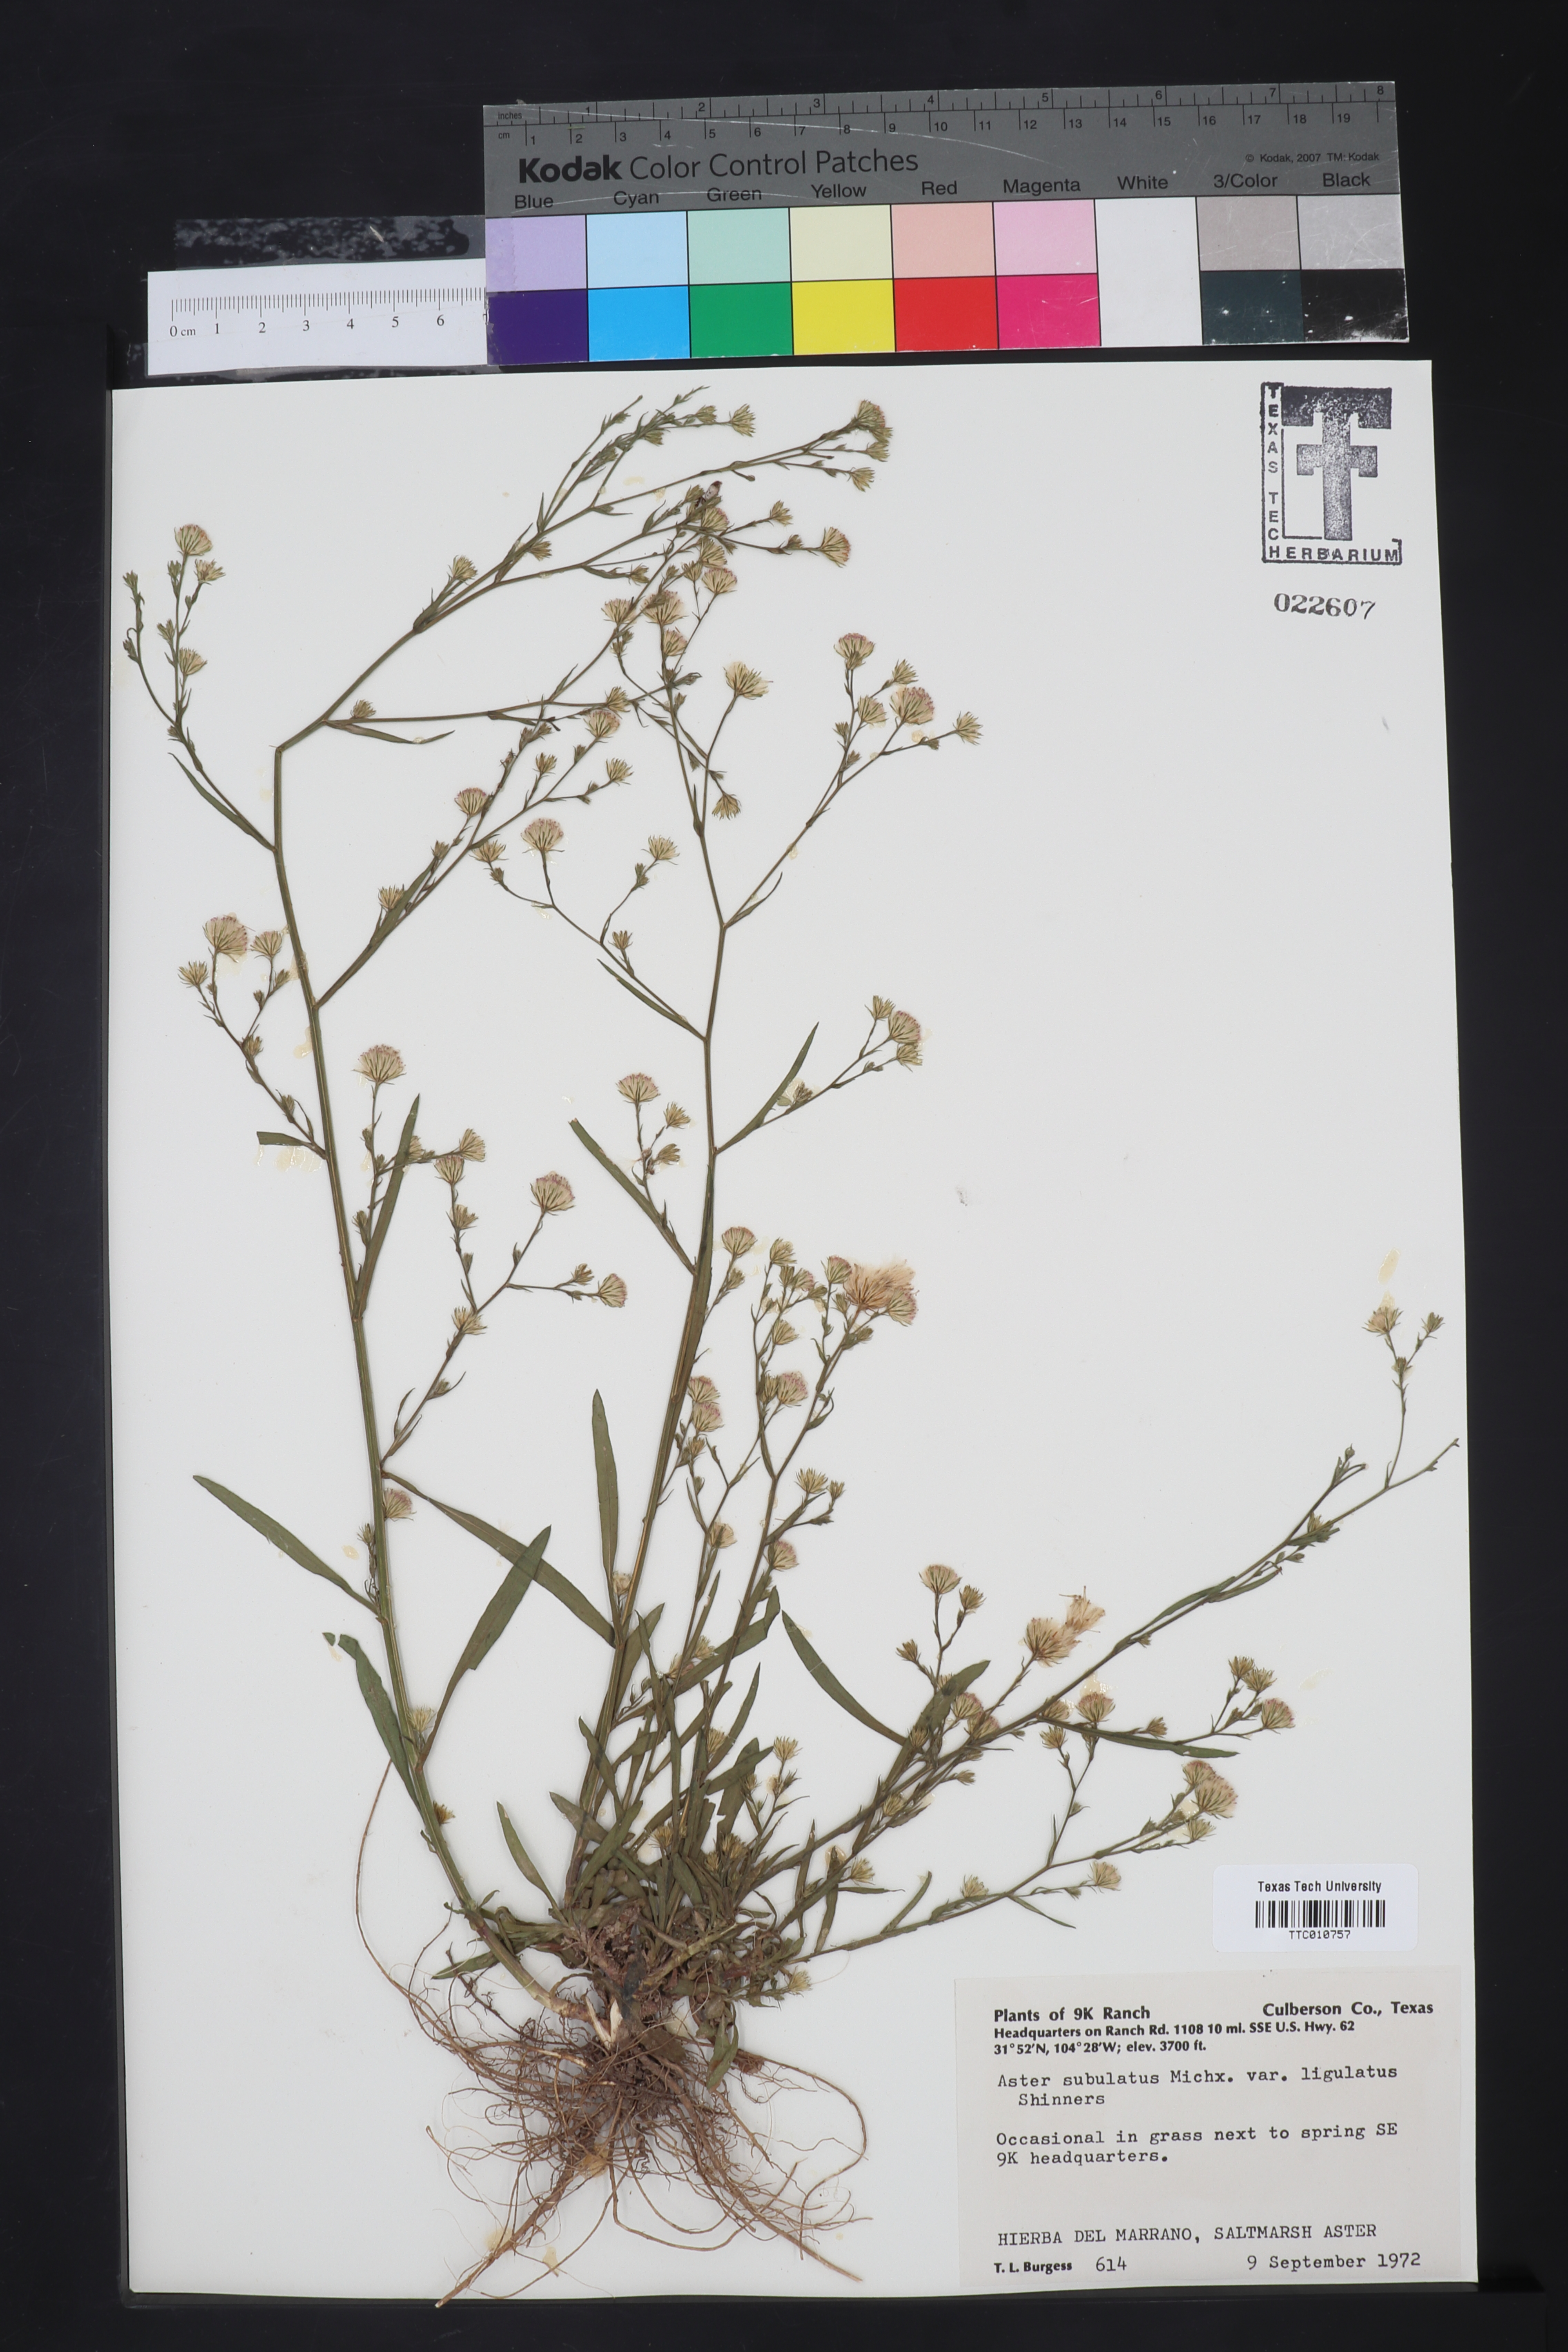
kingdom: Plantae
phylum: Tracheophyta
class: Magnoliopsida
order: Asterales
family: Asteraceae
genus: Symphyotrichum
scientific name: Symphyotrichum divaricatum
